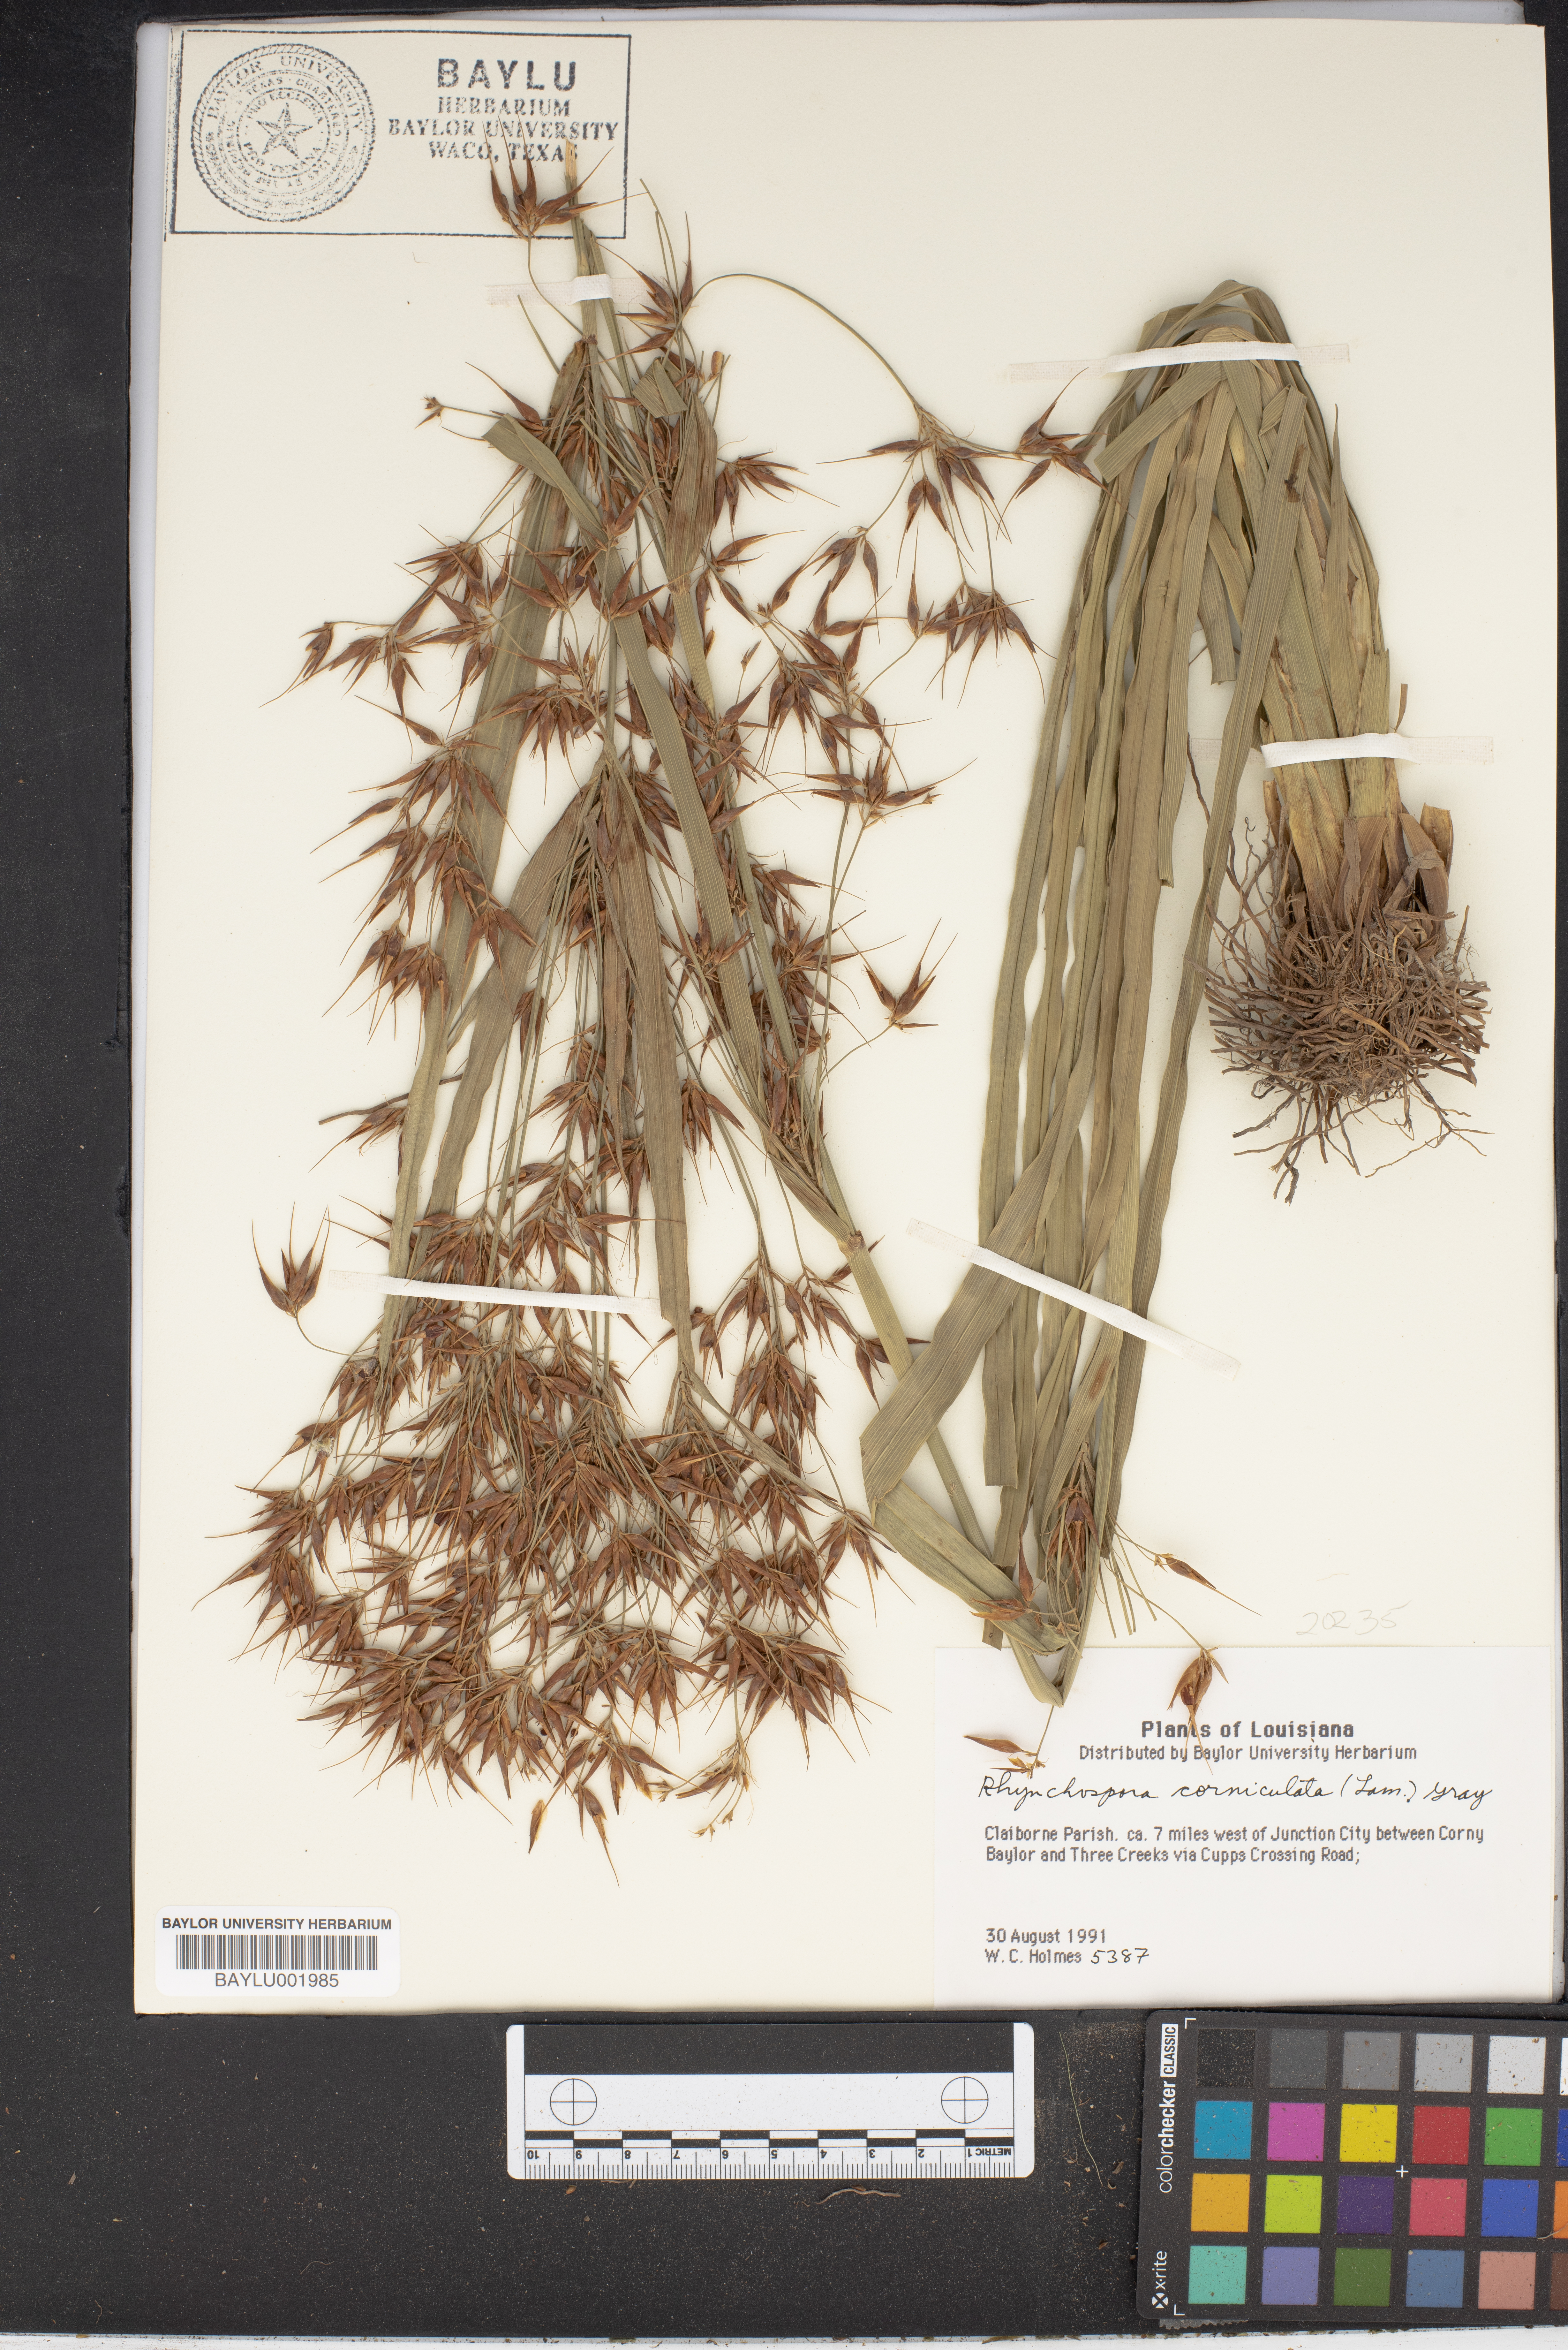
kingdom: Plantae
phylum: Tracheophyta
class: Liliopsida
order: Poales
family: Cyperaceae
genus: Rhynchospora
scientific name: Rhynchospora corniculata
